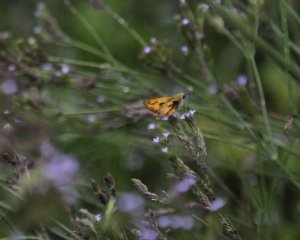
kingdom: Animalia
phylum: Arthropoda
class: Insecta
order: Lepidoptera
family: Hesperiidae
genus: Hylephila
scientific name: Hylephila phyleus
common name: Fiery Skipper
